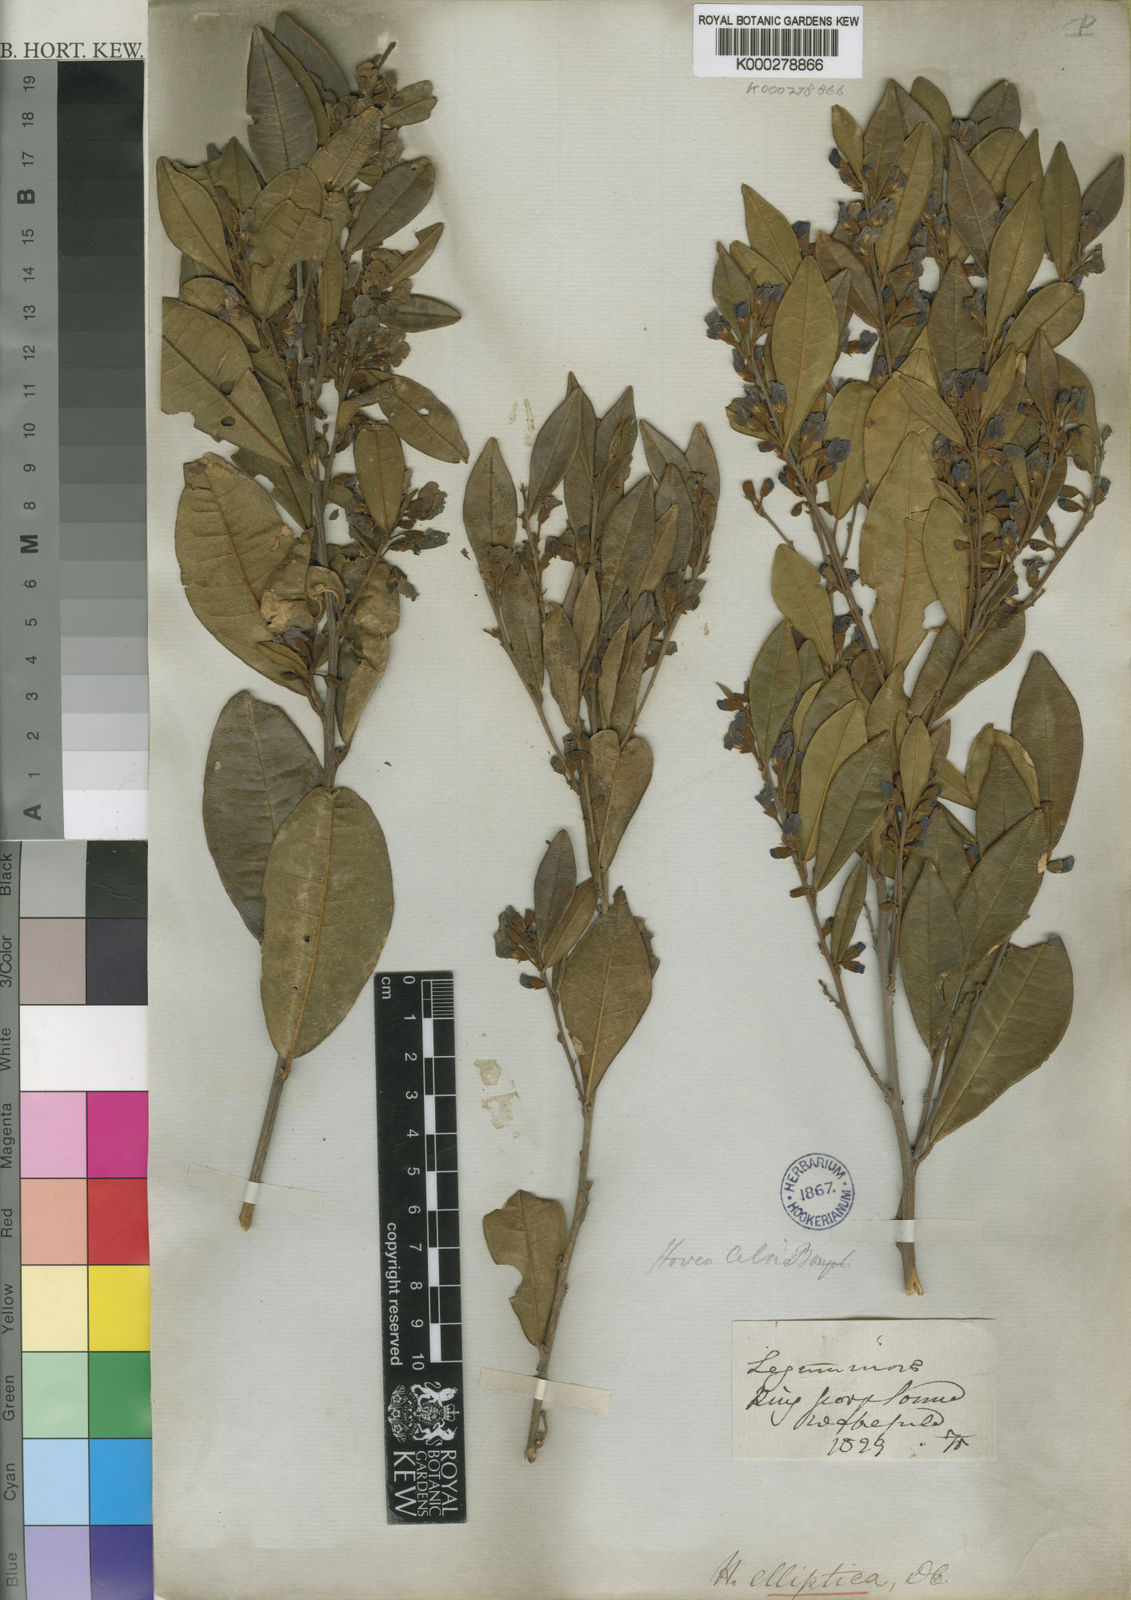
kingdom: Plantae
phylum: Tracheophyta
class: Magnoliopsida
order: Fabales
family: Fabaceae
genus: Hovea
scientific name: Hovea elliptica
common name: Tree hovea
